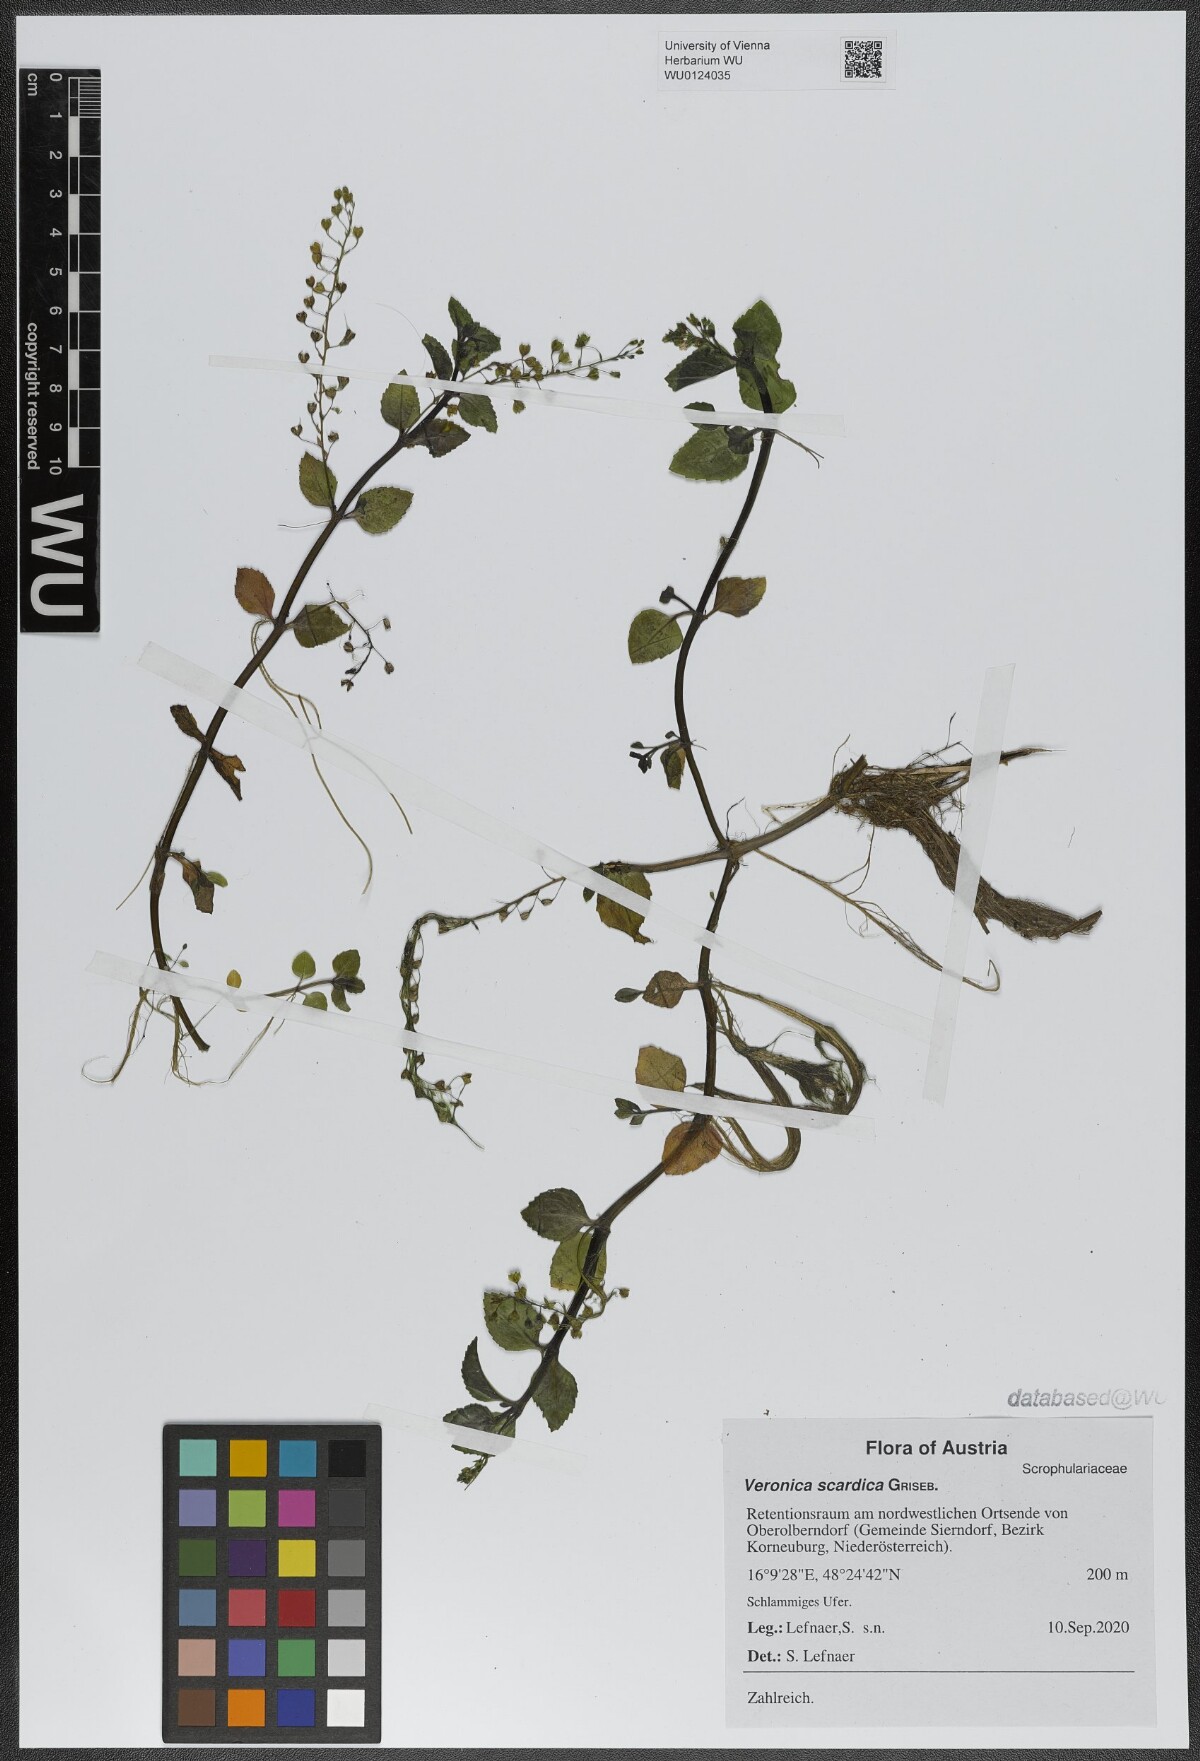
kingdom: Plantae
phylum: Tracheophyta
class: Magnoliopsida
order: Lamiales
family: Plantaginaceae
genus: Veronica
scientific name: Veronica scardica
